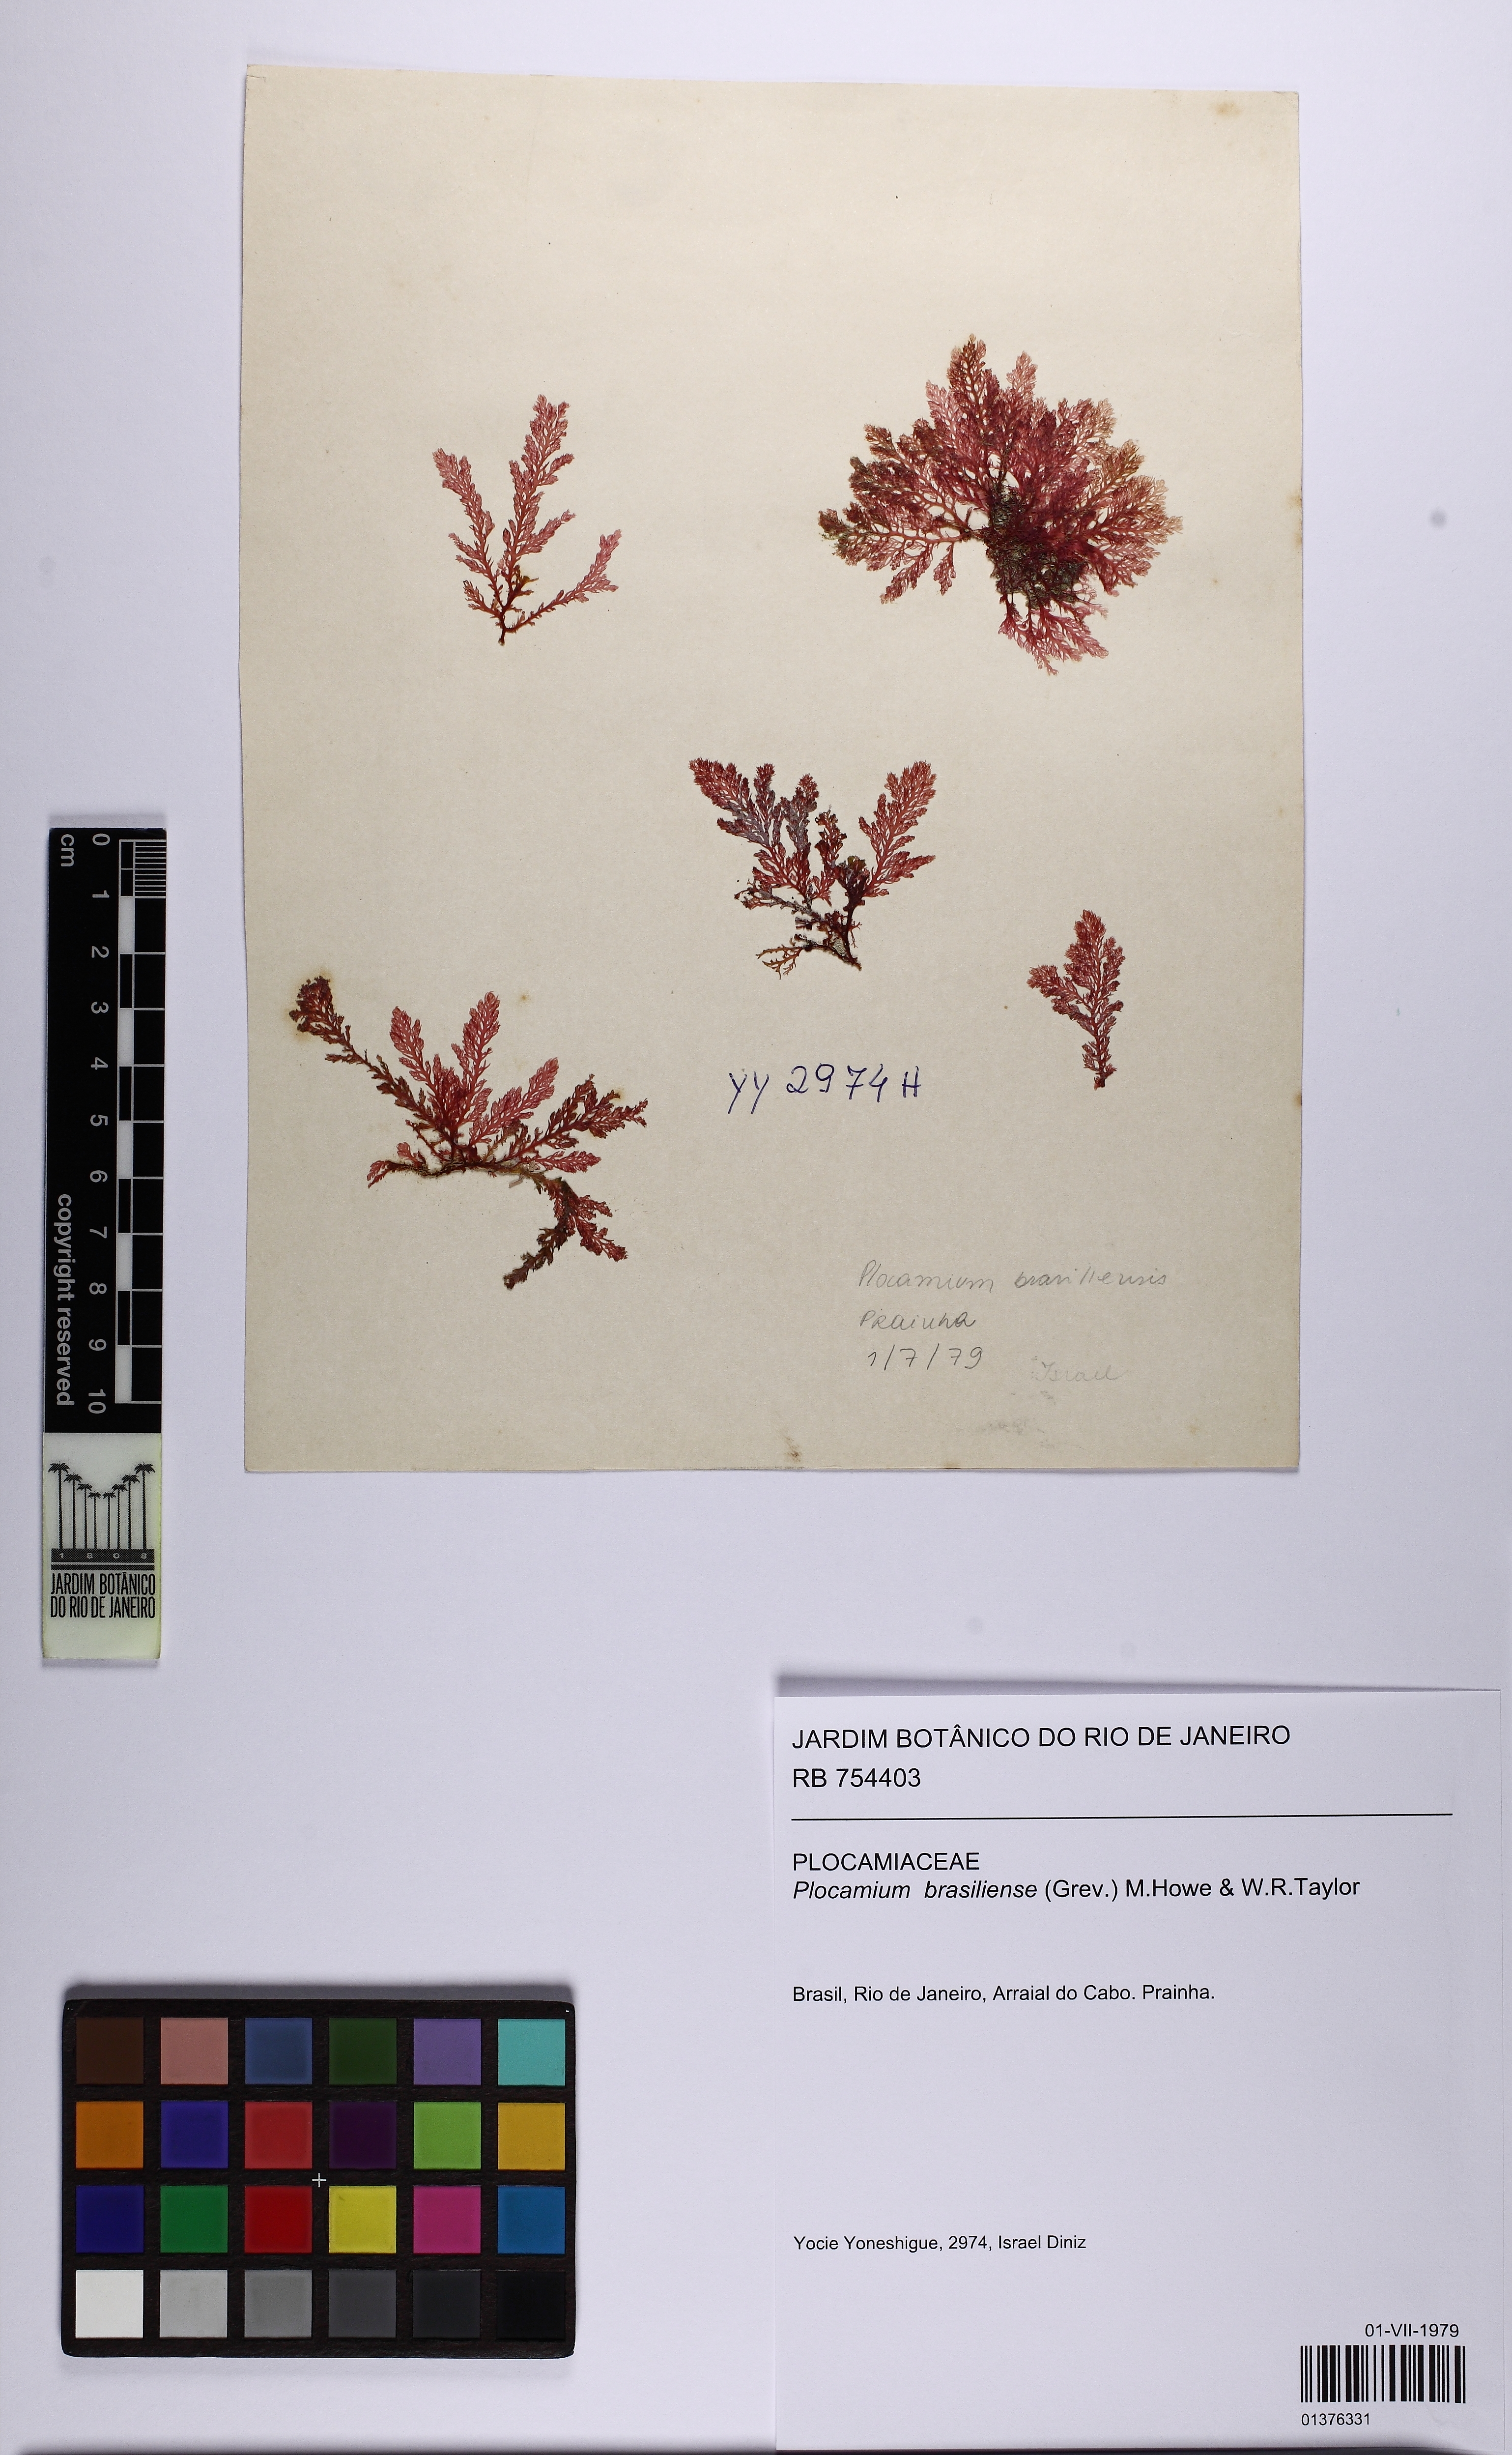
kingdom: Plantae
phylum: Rhodophyta
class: Florideophyceae
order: Plocamiales
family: Plocamiaceae
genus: Plocamium
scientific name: Plocamium brasiliense
